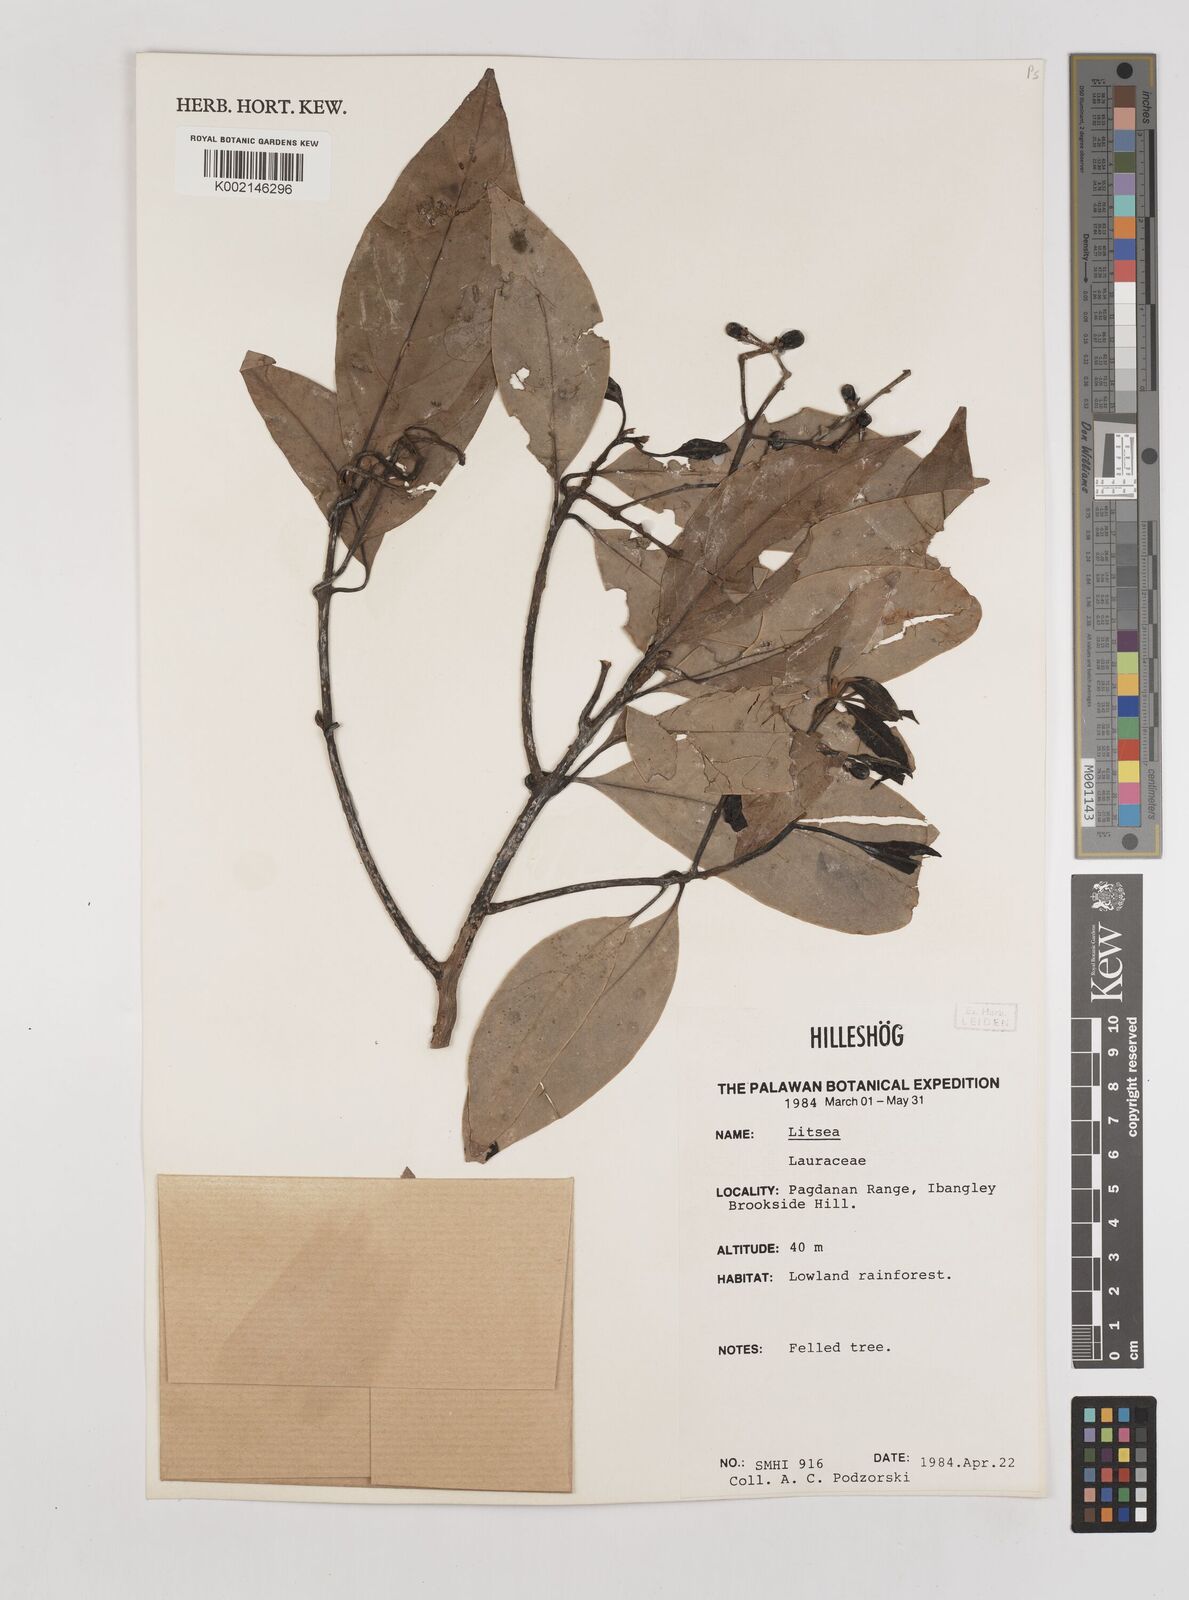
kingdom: Plantae
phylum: Tracheophyta
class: Magnoliopsida
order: Laurales
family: Lauraceae
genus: Litsea
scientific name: Litsea
